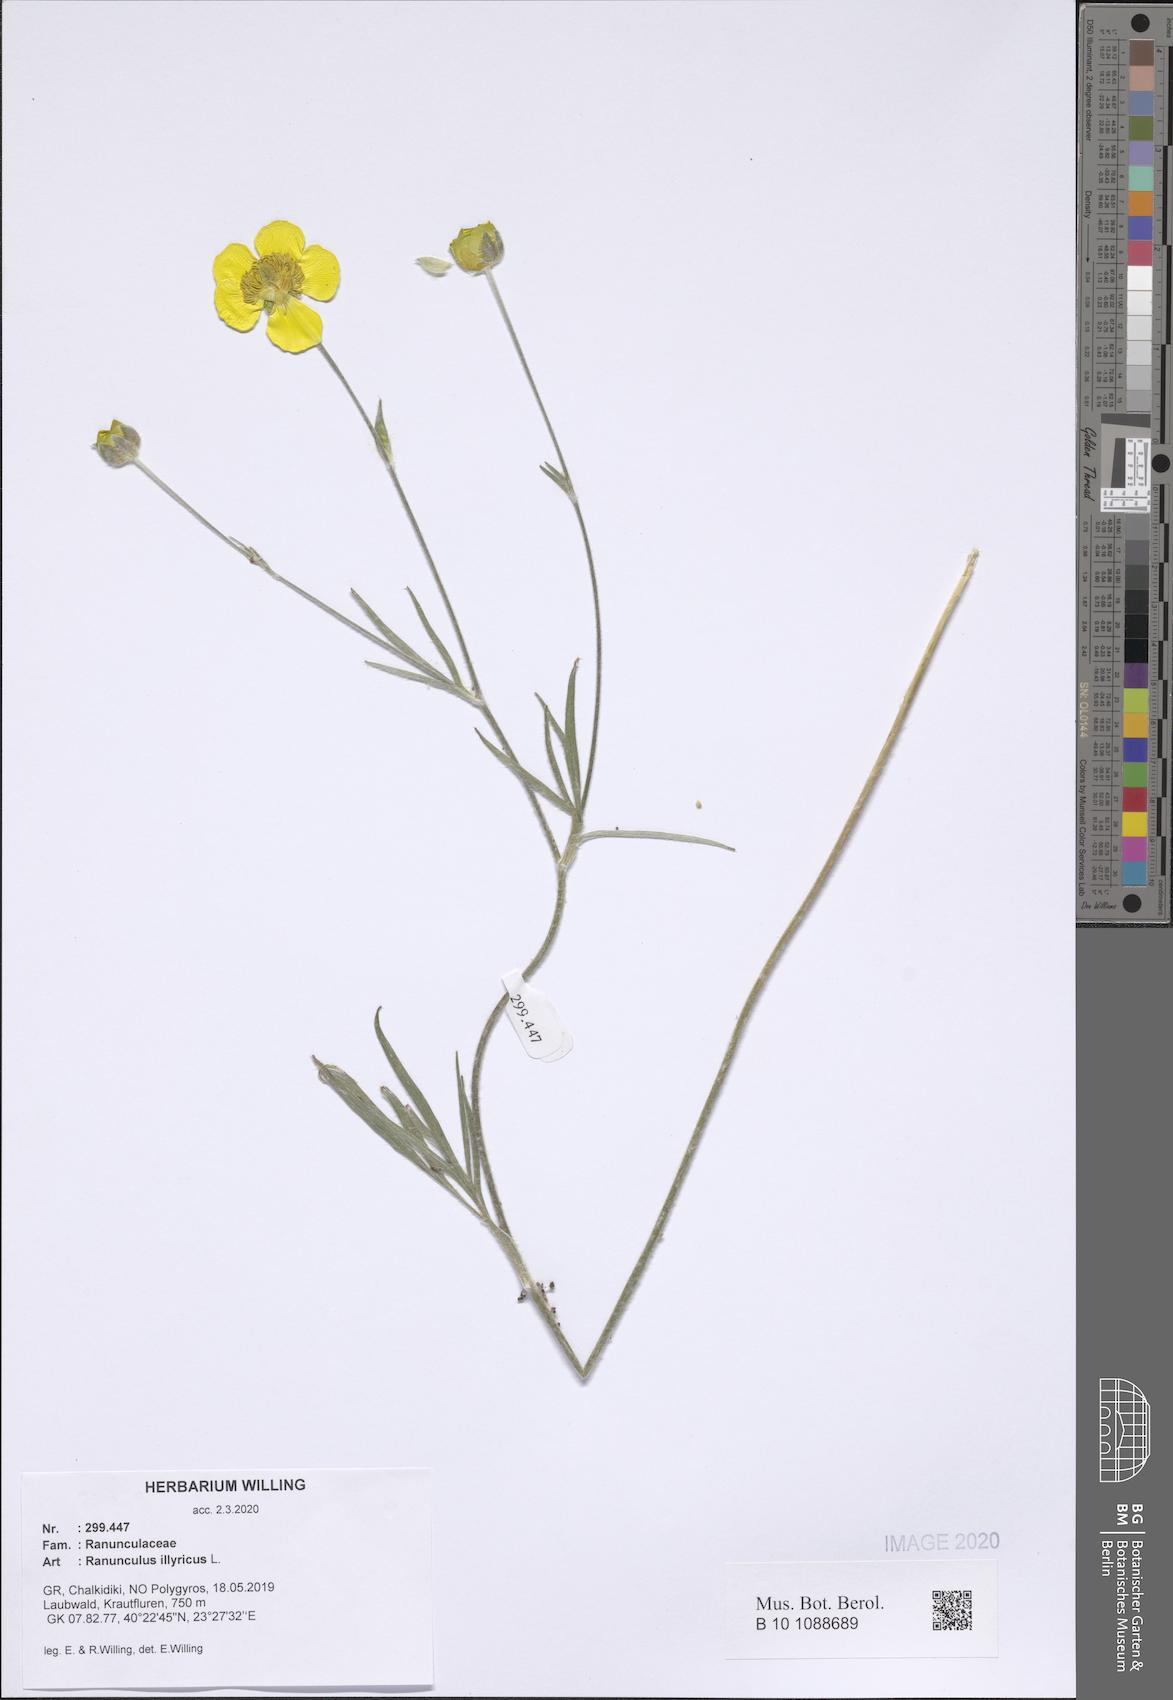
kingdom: Plantae
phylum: Tracheophyta
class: Magnoliopsida
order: Ranunculales
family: Ranunculaceae
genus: Ranunculus
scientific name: Ranunculus illyricus
